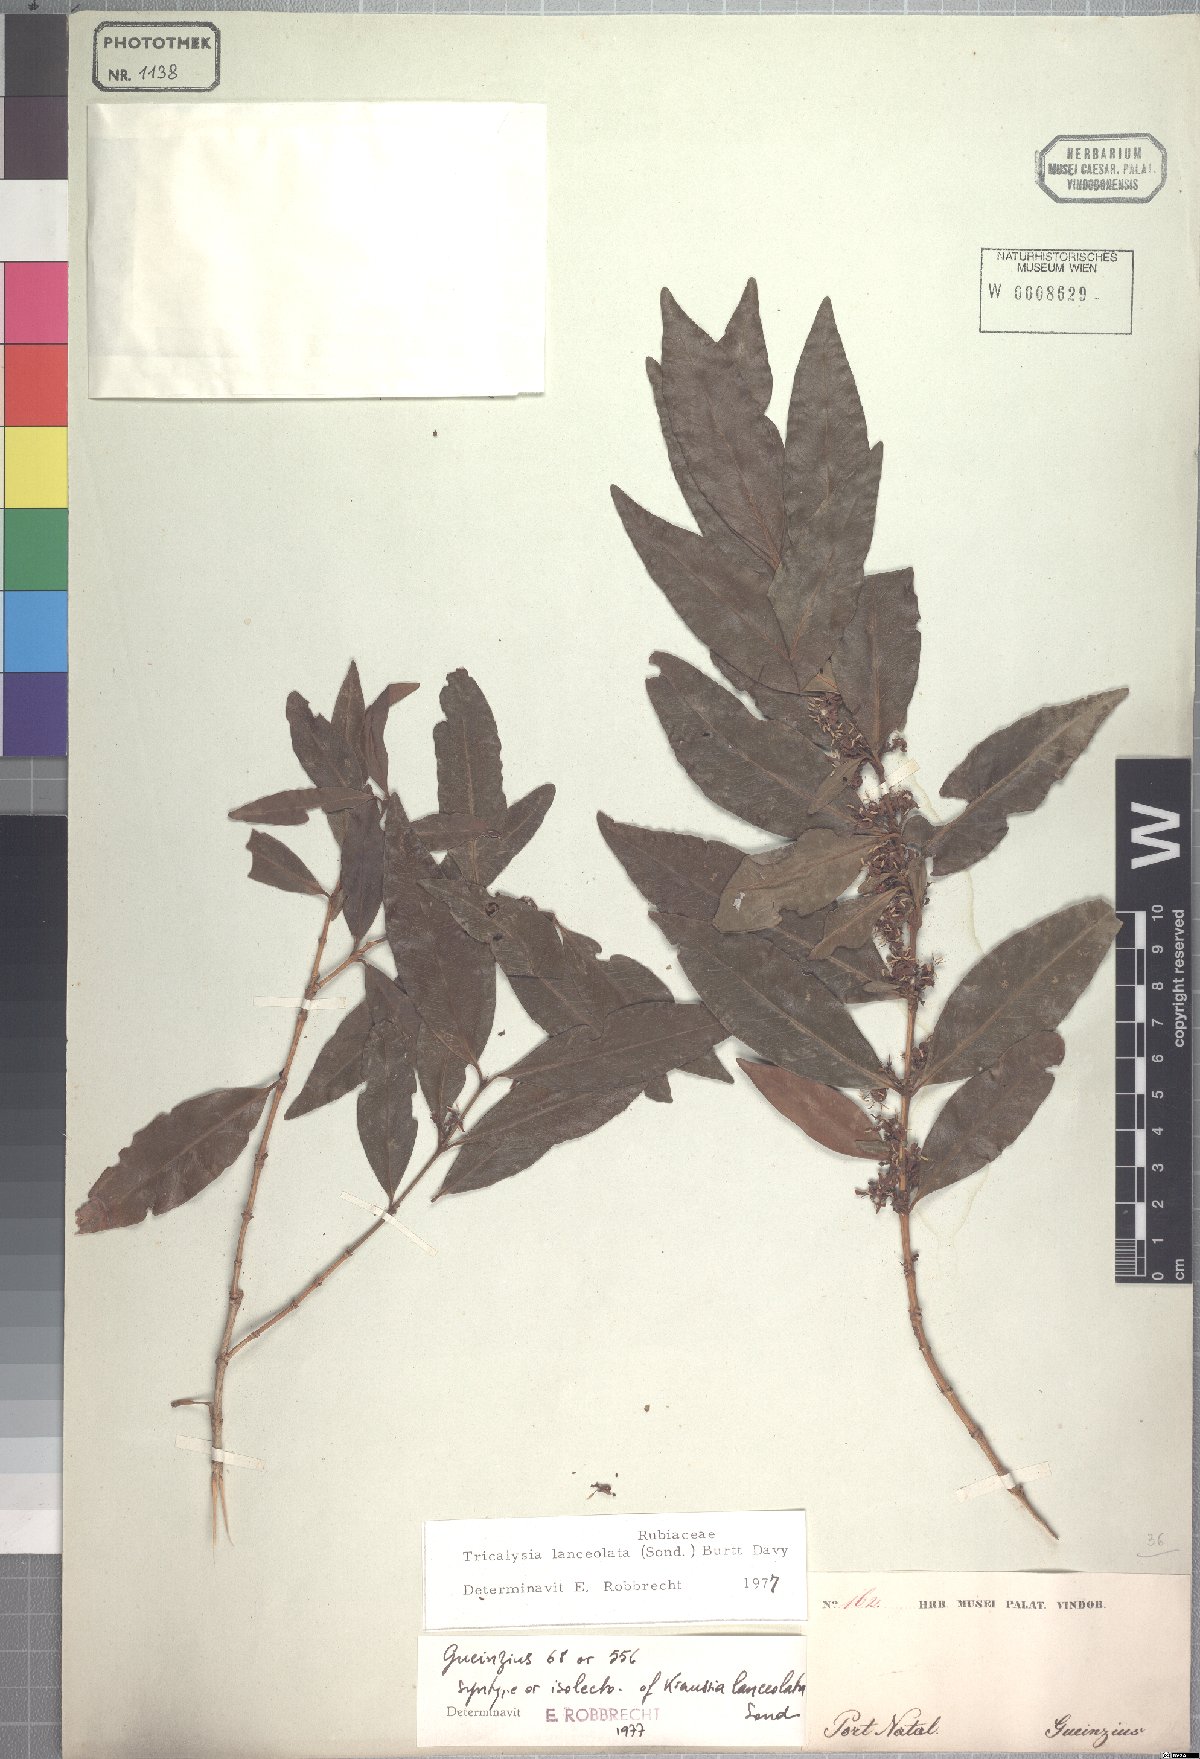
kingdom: Plantae
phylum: Tracheophyta
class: Magnoliopsida
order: Gentianales
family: Rubiaceae
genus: Empogona
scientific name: Empogona lanceolata
